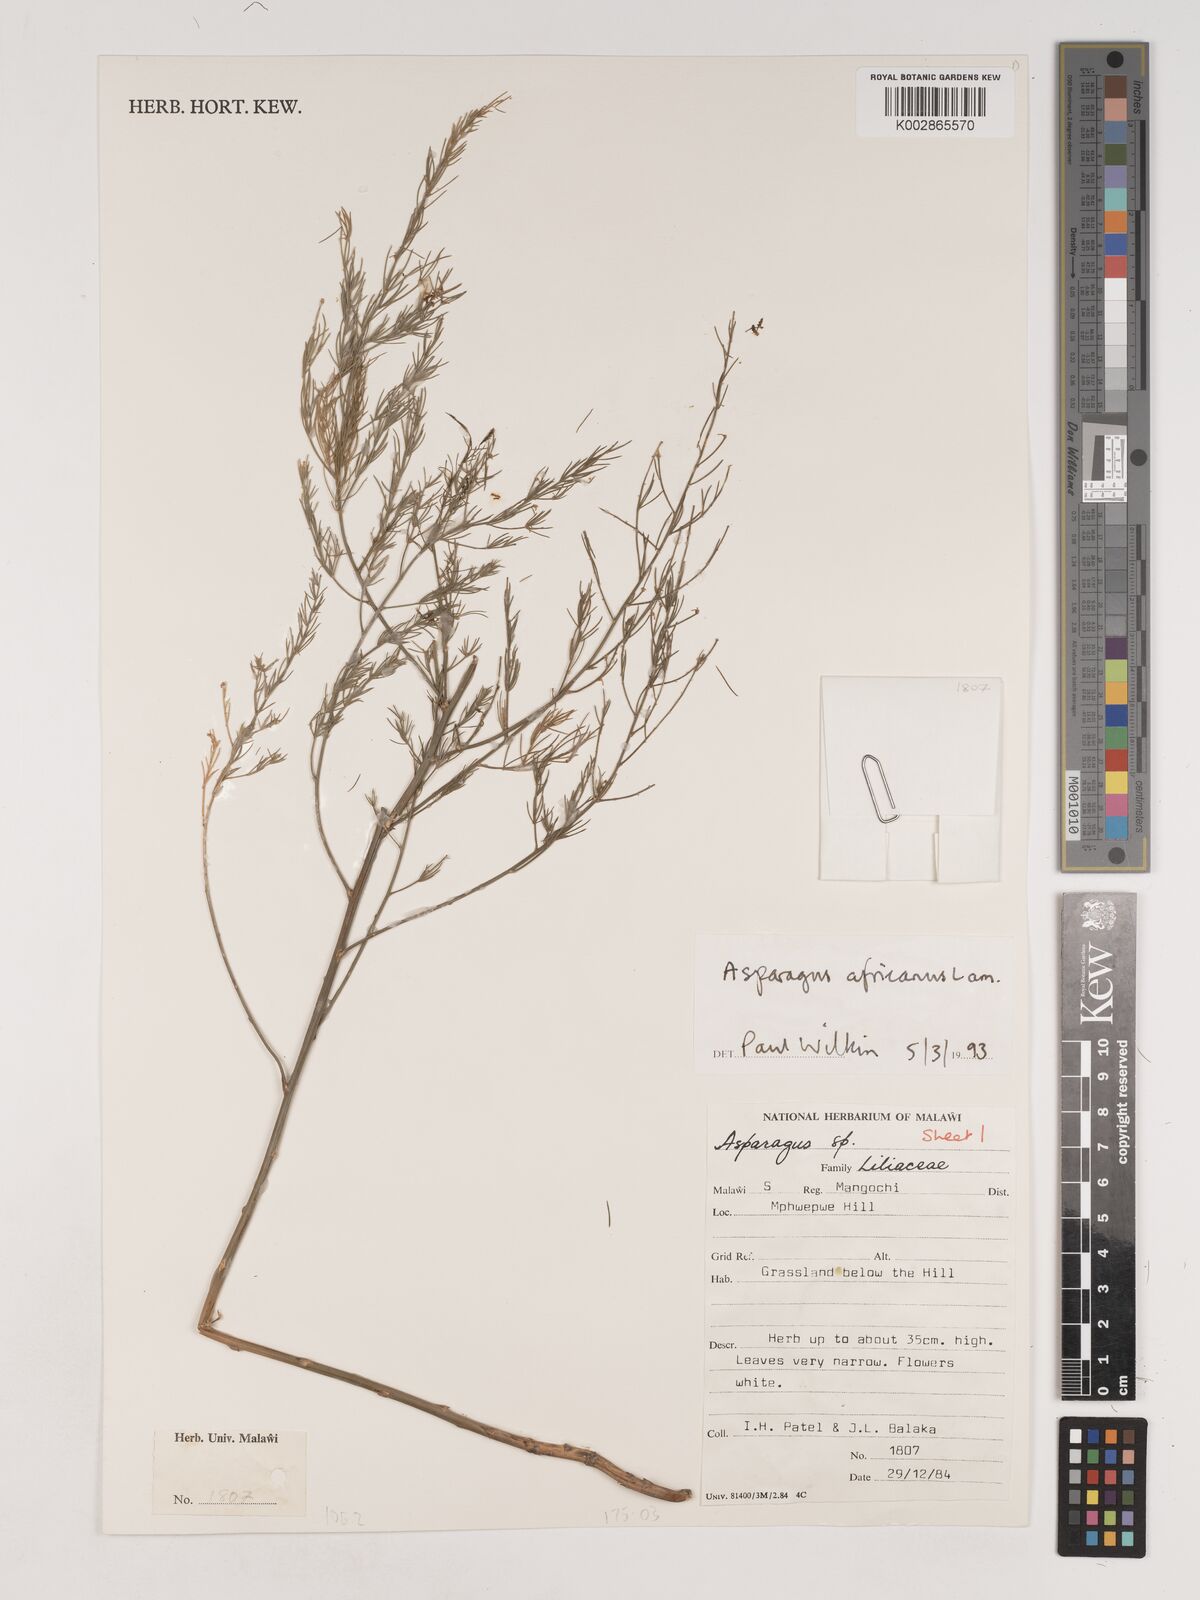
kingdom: Plantae
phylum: Tracheophyta
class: Liliopsida
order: Asparagales
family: Asparagaceae
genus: Asparagus
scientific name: Asparagus africanus
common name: Asparagus-fern
